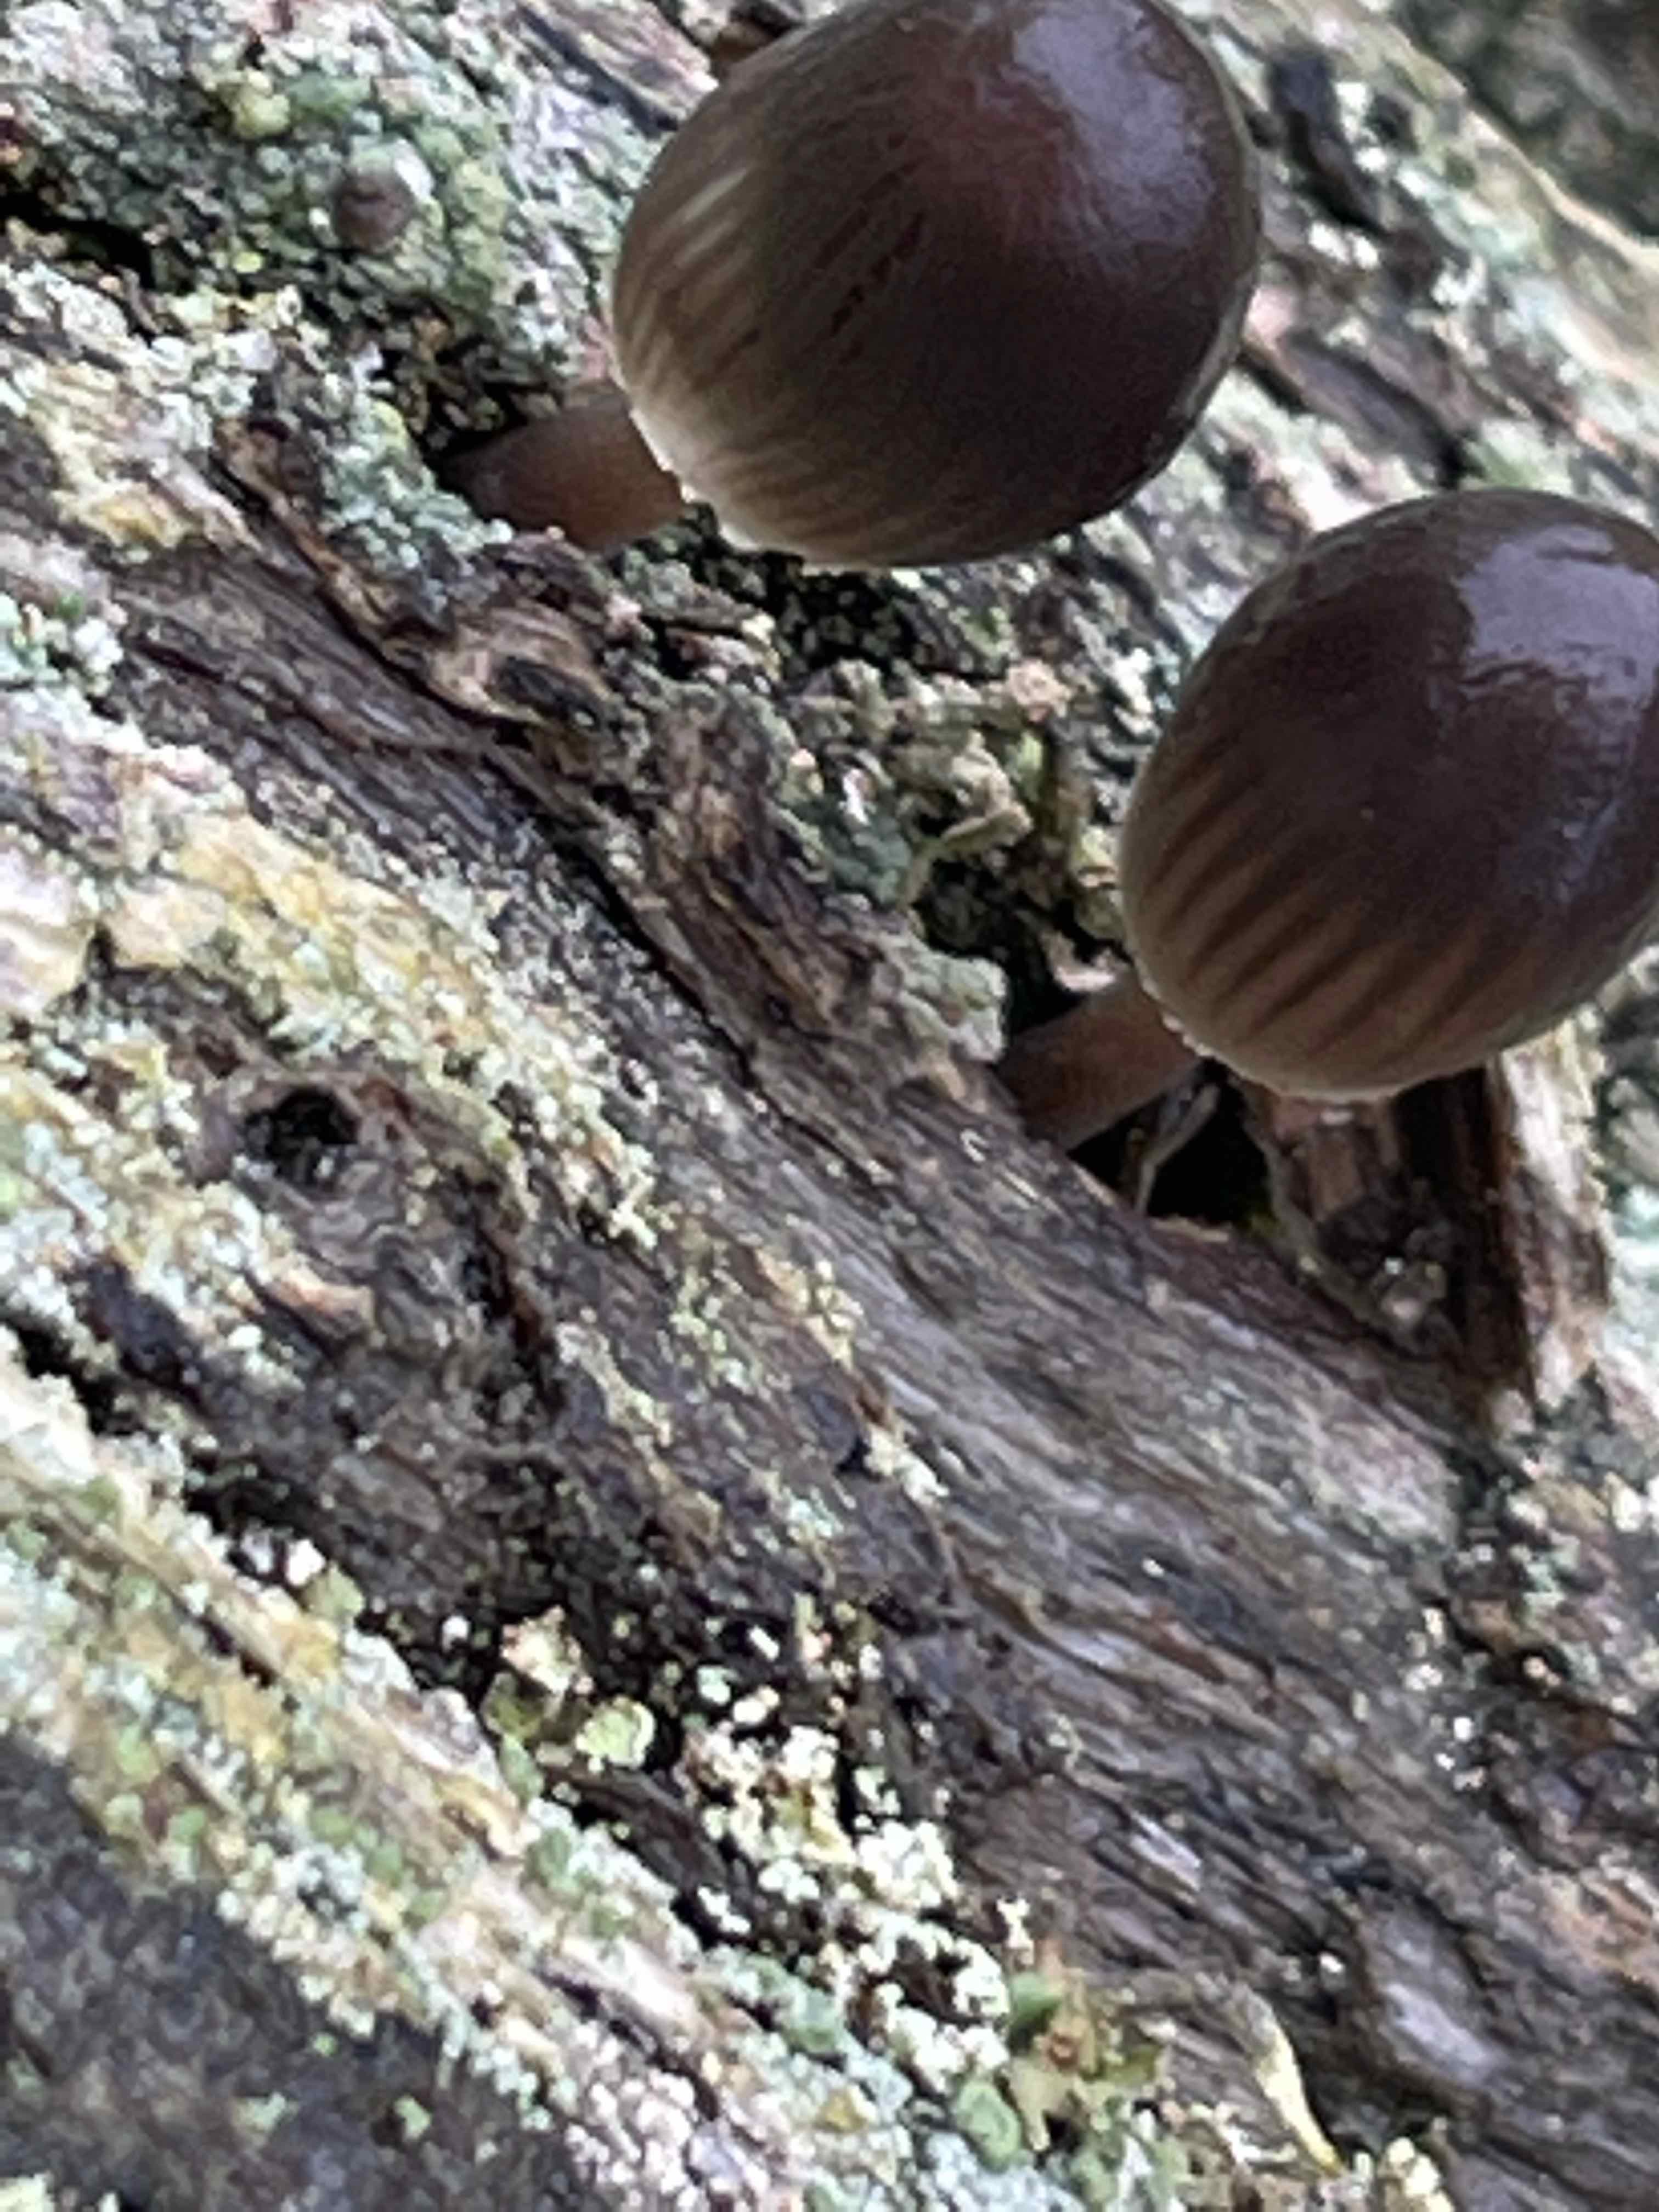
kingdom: Fungi
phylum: Basidiomycota
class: Agaricomycetes
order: Agaricales
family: Mycenaceae
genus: Mycena
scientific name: Mycena inclinata
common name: nikkende huesvamp
